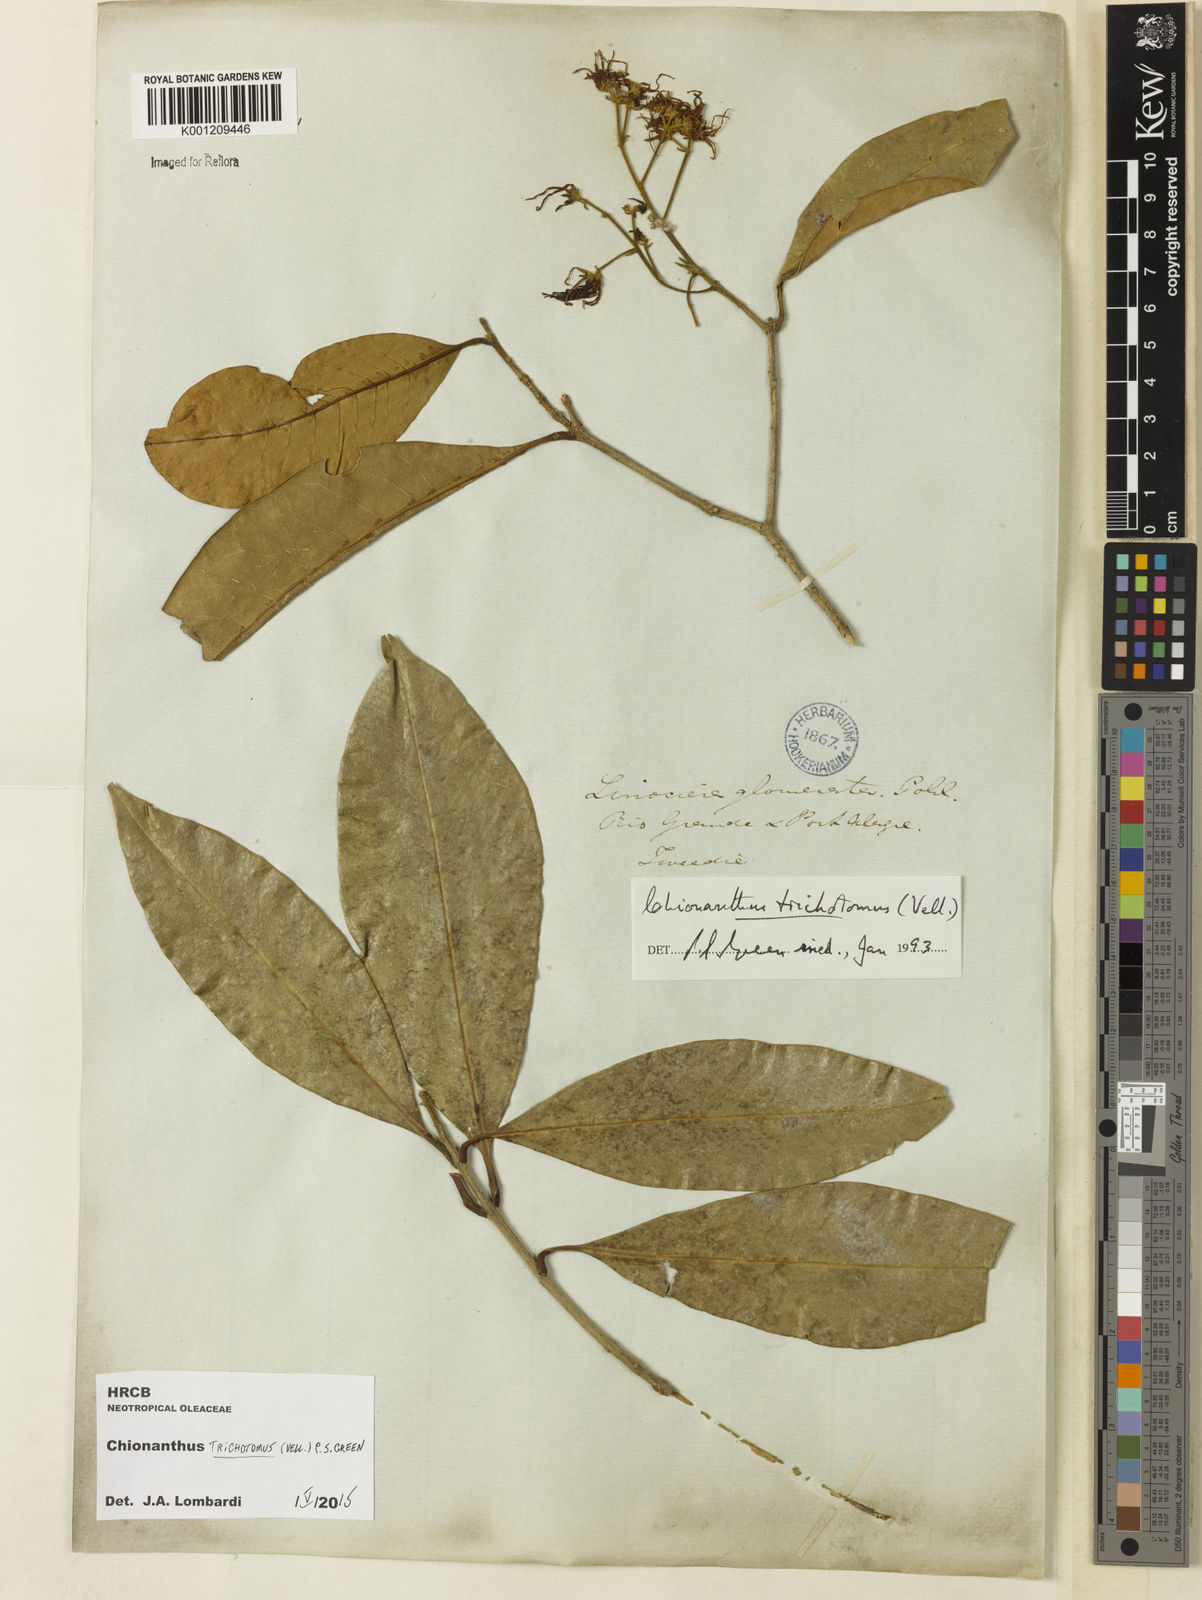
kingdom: Plantae
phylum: Tracheophyta
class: Magnoliopsida
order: Lamiales
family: Oleaceae
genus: Chionanthus
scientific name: Chionanthus trichotomus
